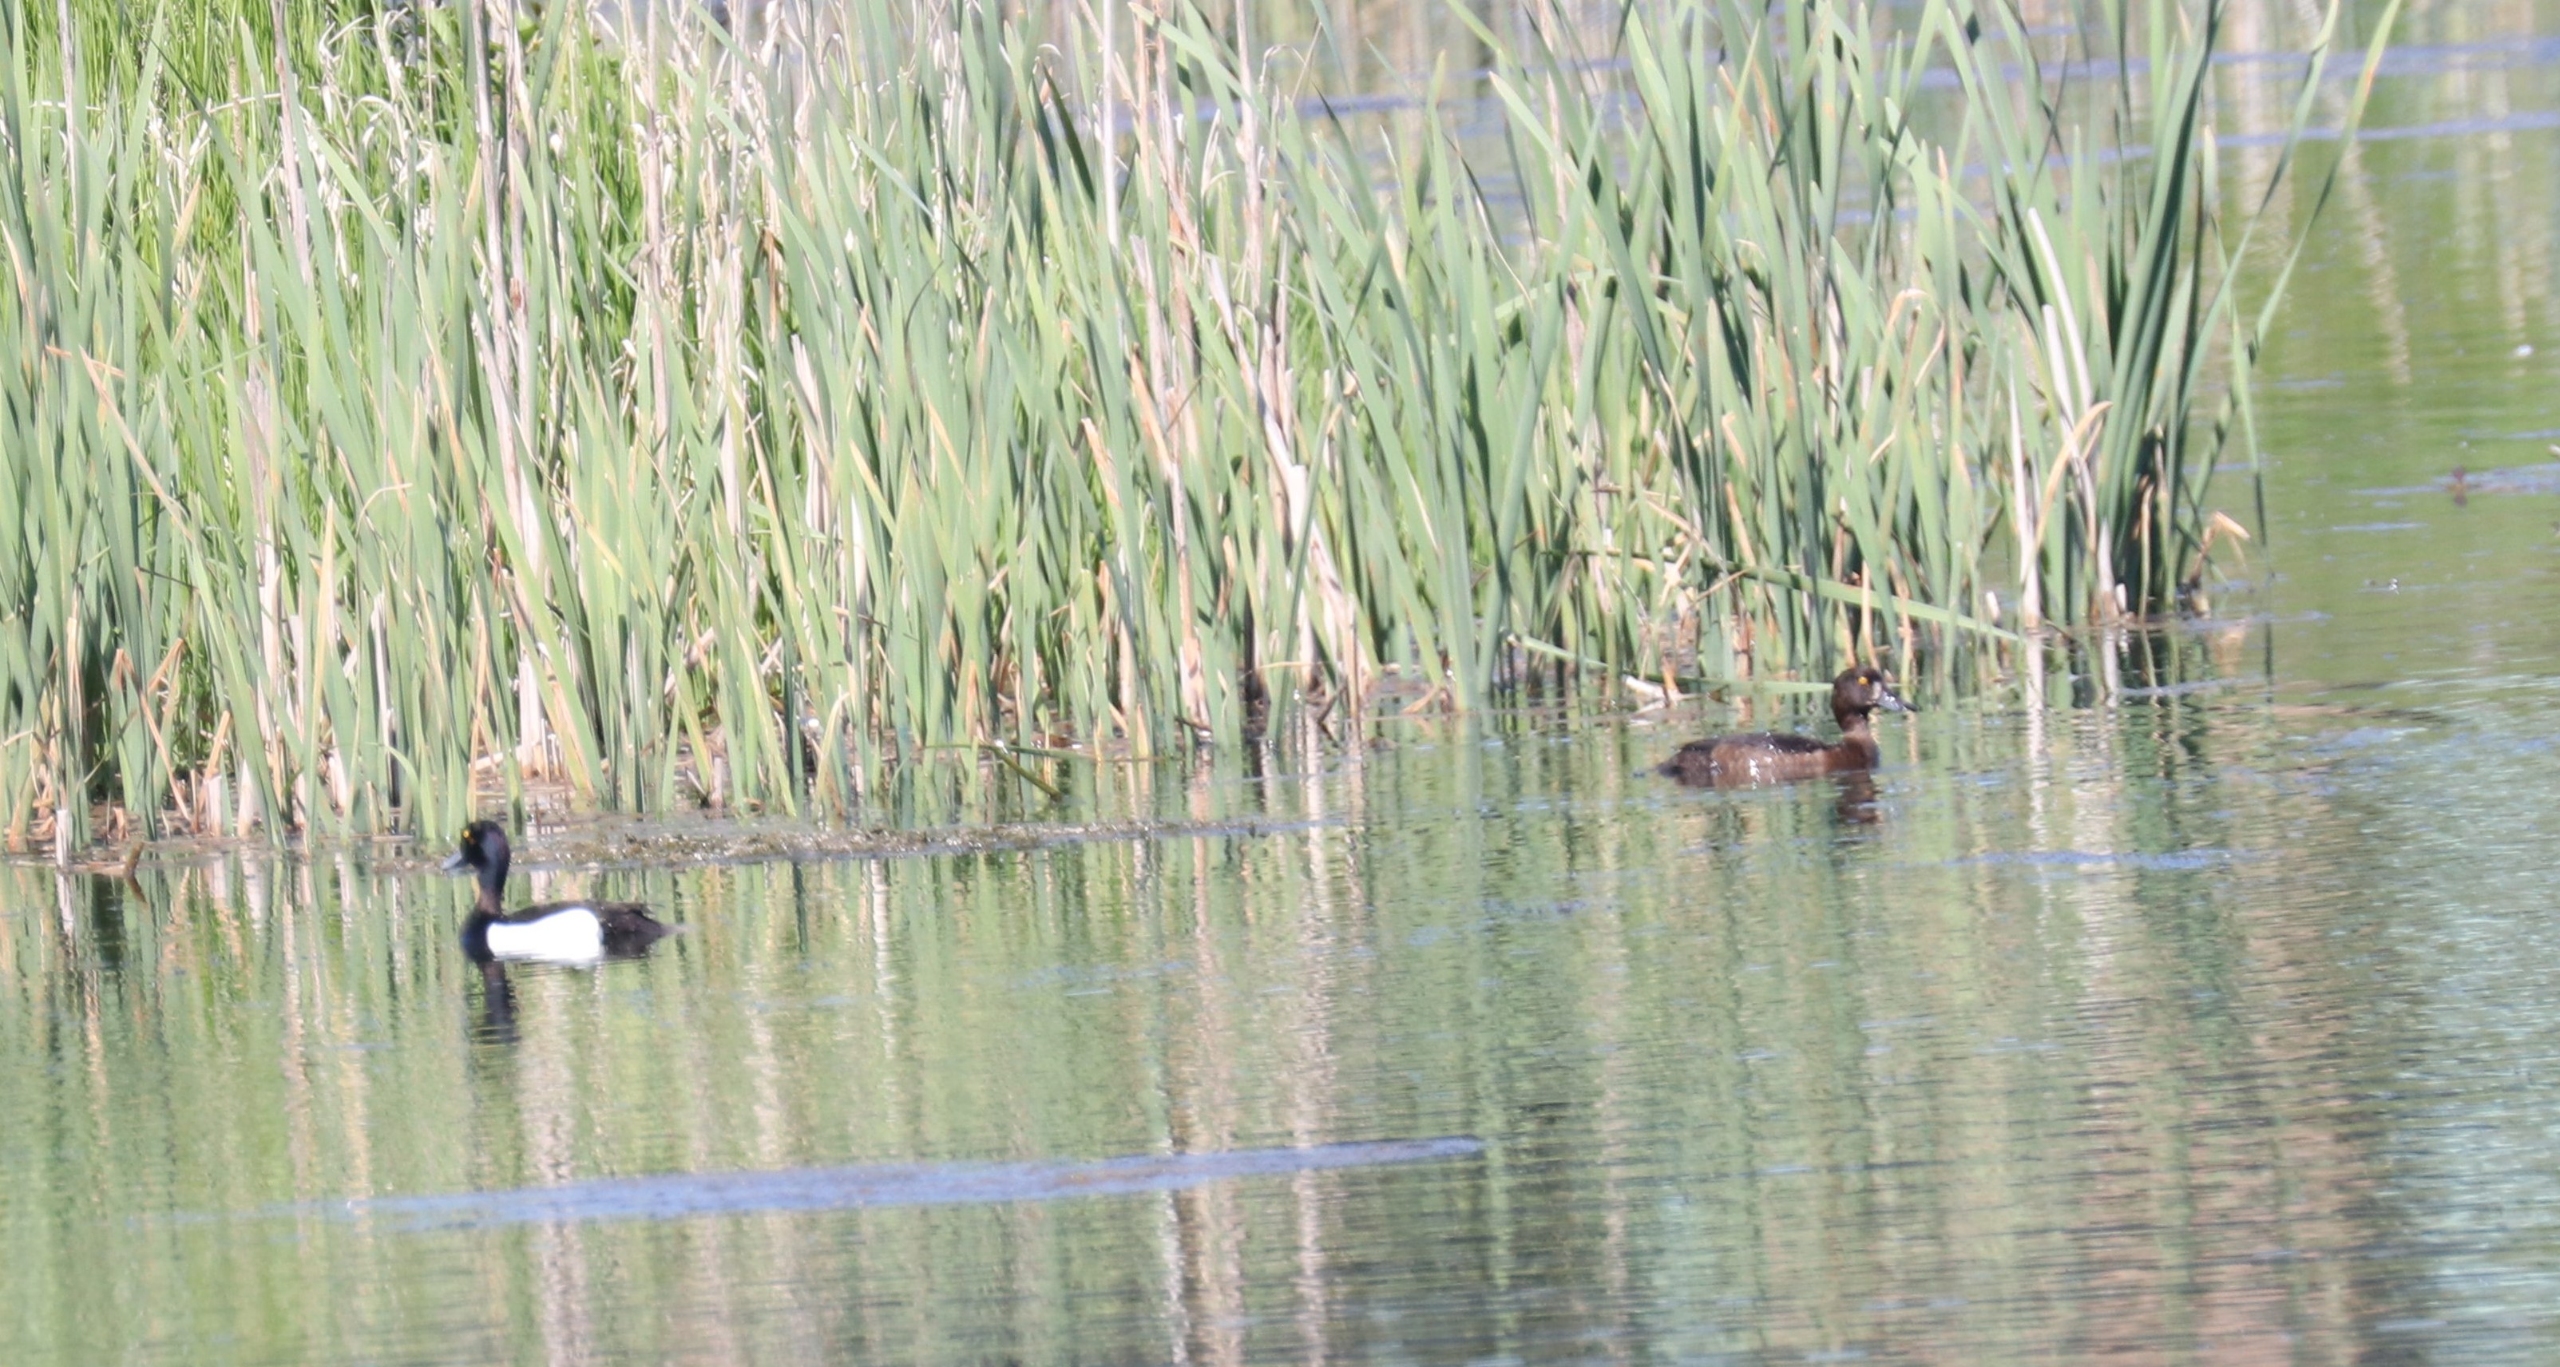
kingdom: Animalia
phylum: Chordata
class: Aves
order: Anseriformes
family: Anatidae
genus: Aythya
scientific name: Aythya fuligula
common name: Troldand
